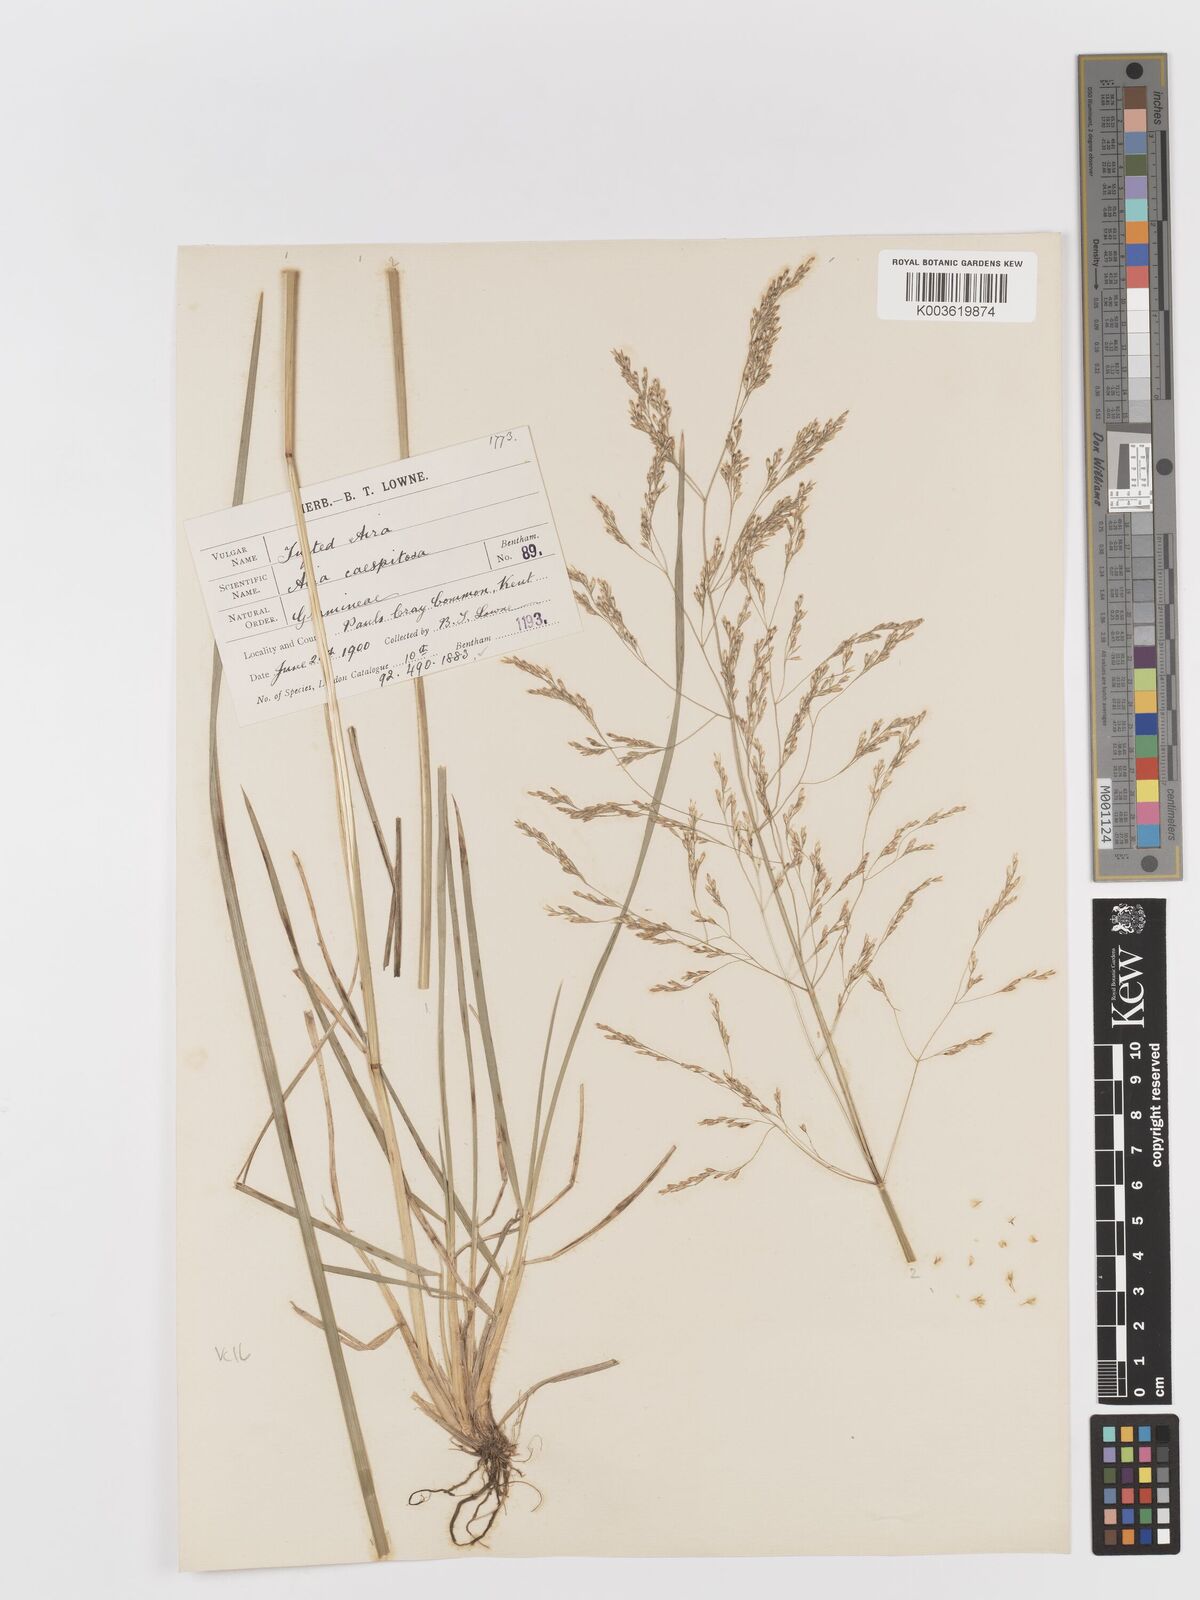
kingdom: Plantae
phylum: Tracheophyta
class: Liliopsida
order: Poales
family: Poaceae
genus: Deschampsia
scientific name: Deschampsia cespitosa
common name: Tufted hair-grass
